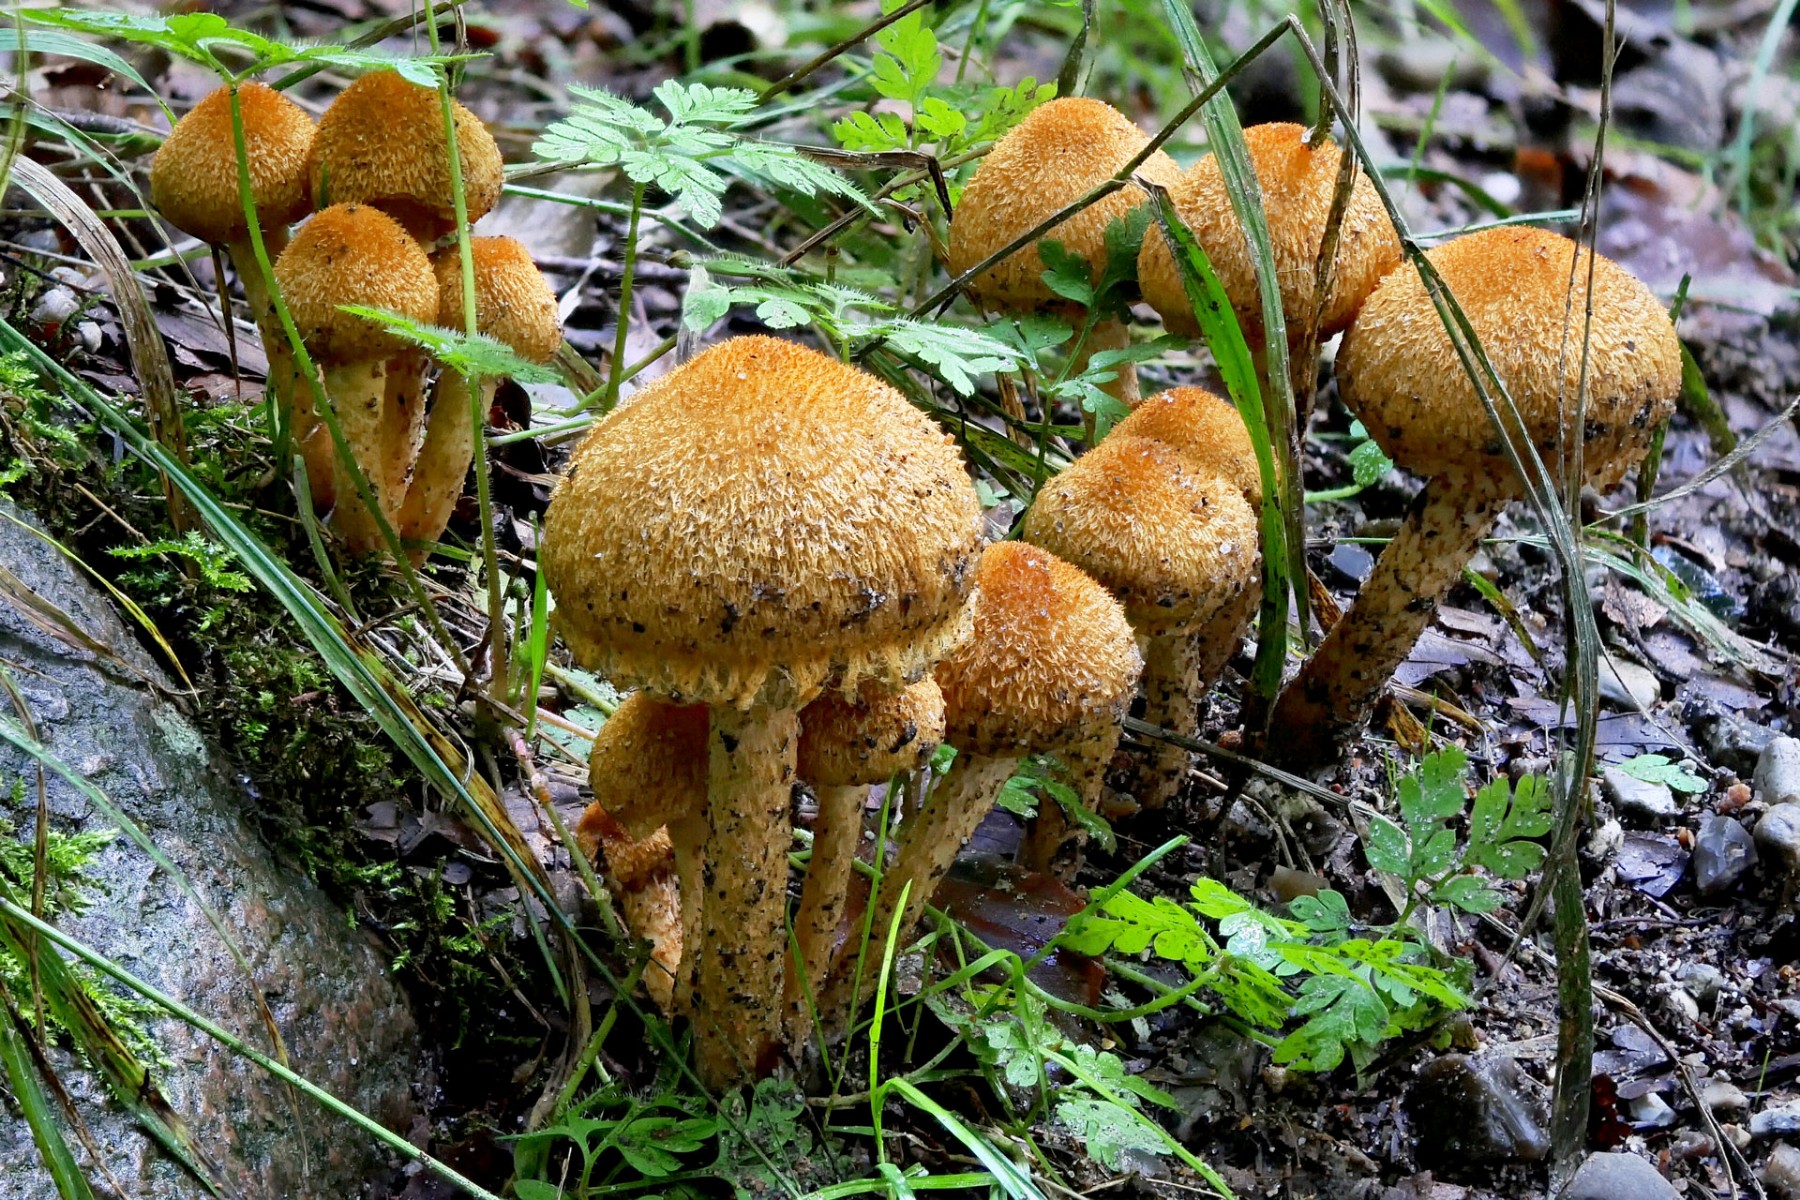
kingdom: Fungi
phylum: Basidiomycota
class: Agaricomycetes
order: Agaricales
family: Psathyrellaceae
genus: Lacrymaria
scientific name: Lacrymaria pyrotricha
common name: ildhåret mørkhat
